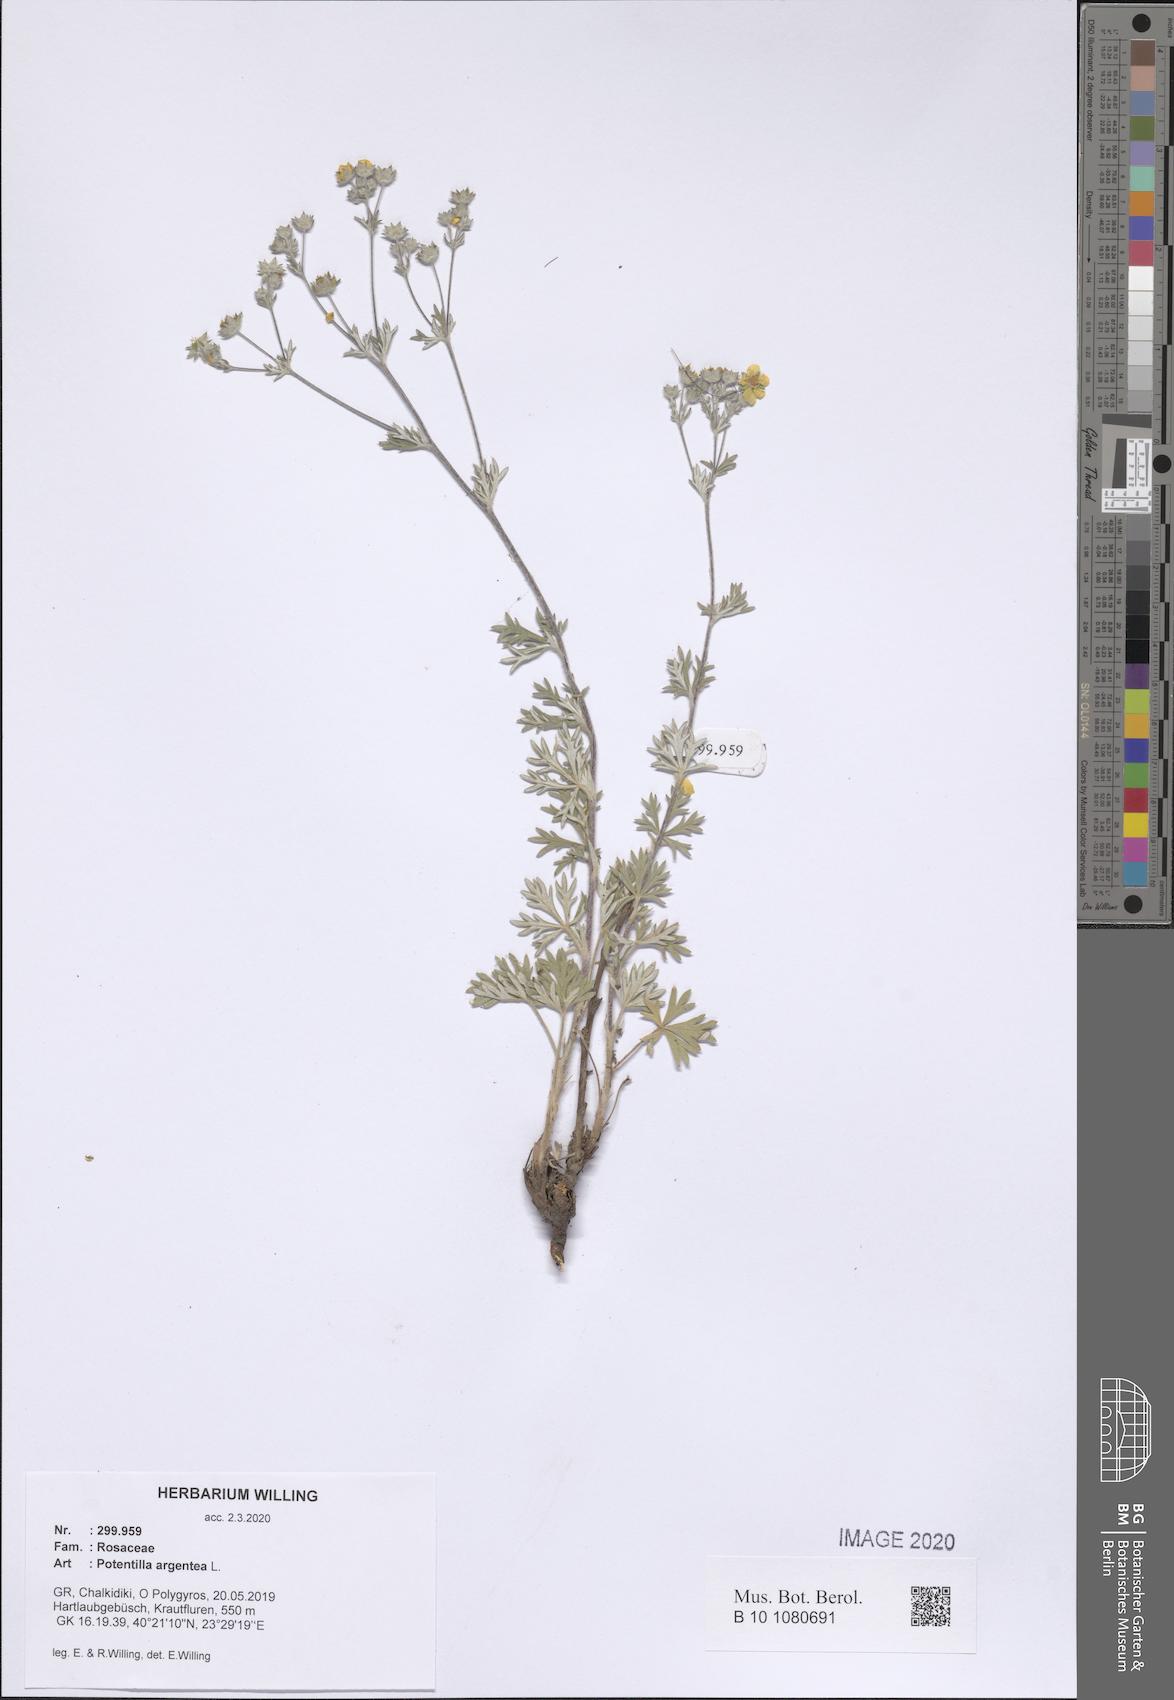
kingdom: Plantae
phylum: Tracheophyta
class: Magnoliopsida
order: Rosales
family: Rosaceae
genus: Potentilla
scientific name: Potentilla argentea
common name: Hoary cinquefoil
